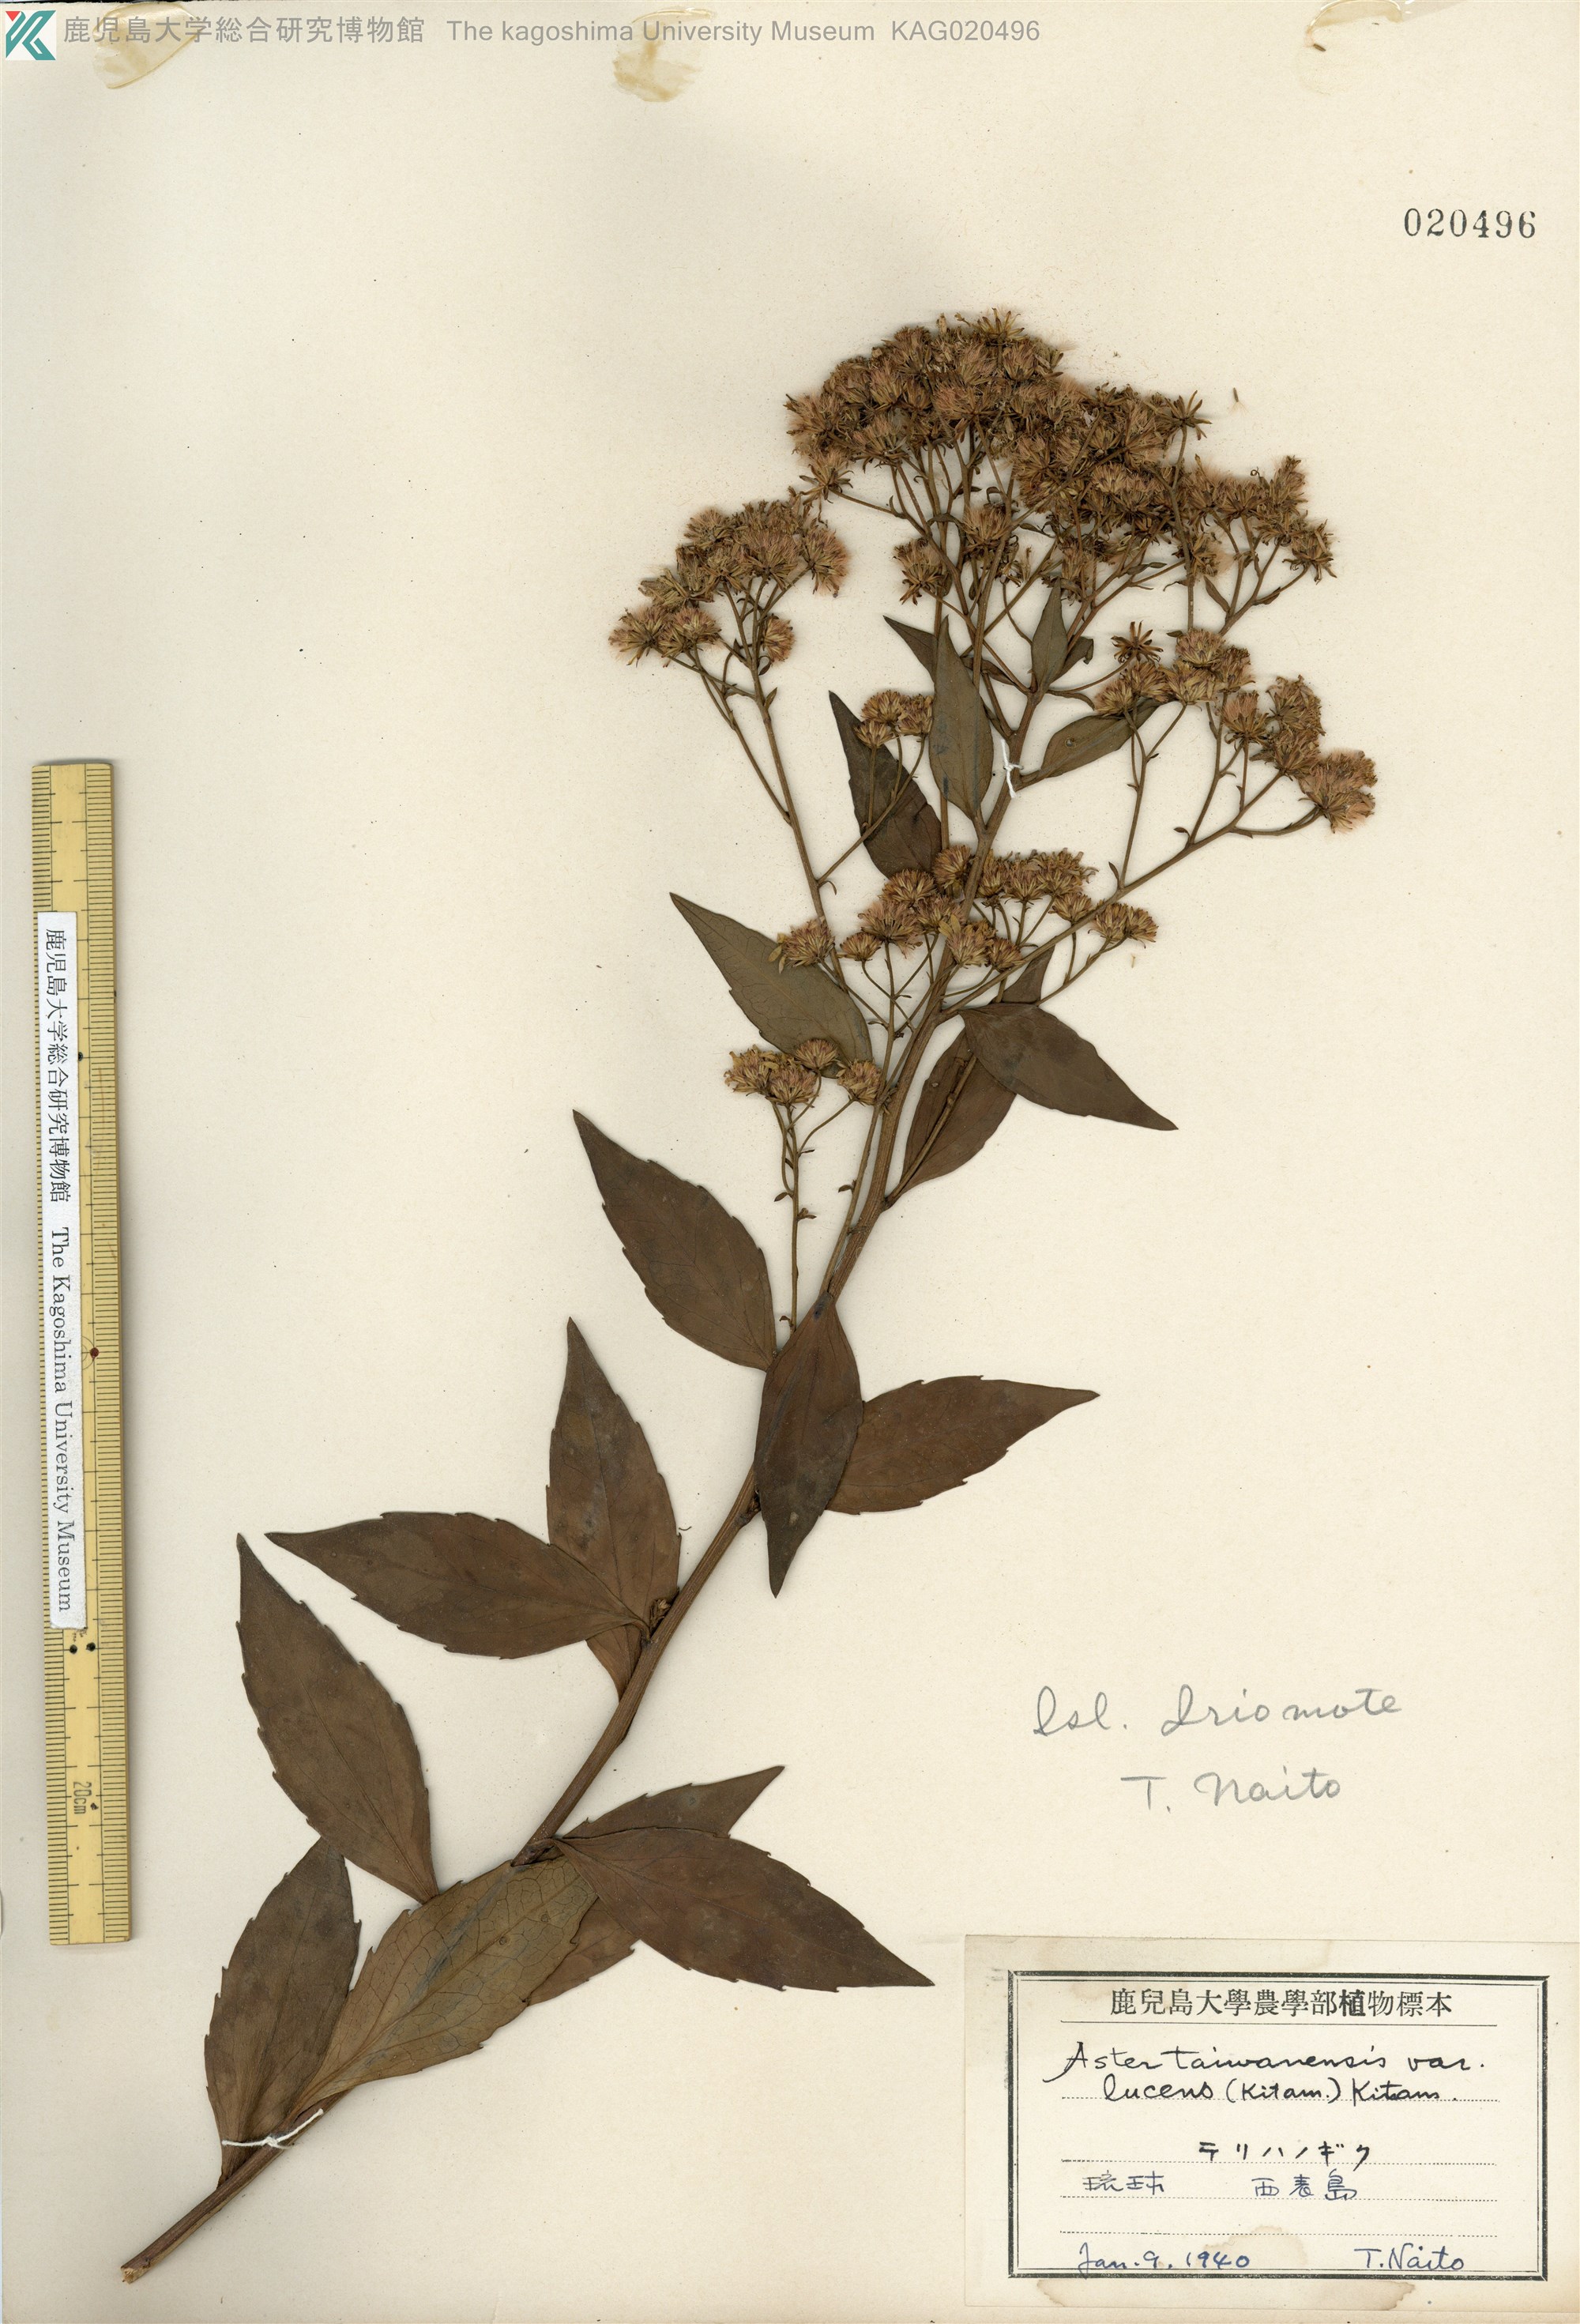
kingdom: Plantae
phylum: Tracheophyta
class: Magnoliopsida
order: Asterales
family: Asteraceae
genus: Aster
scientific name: Aster taiwanensis
